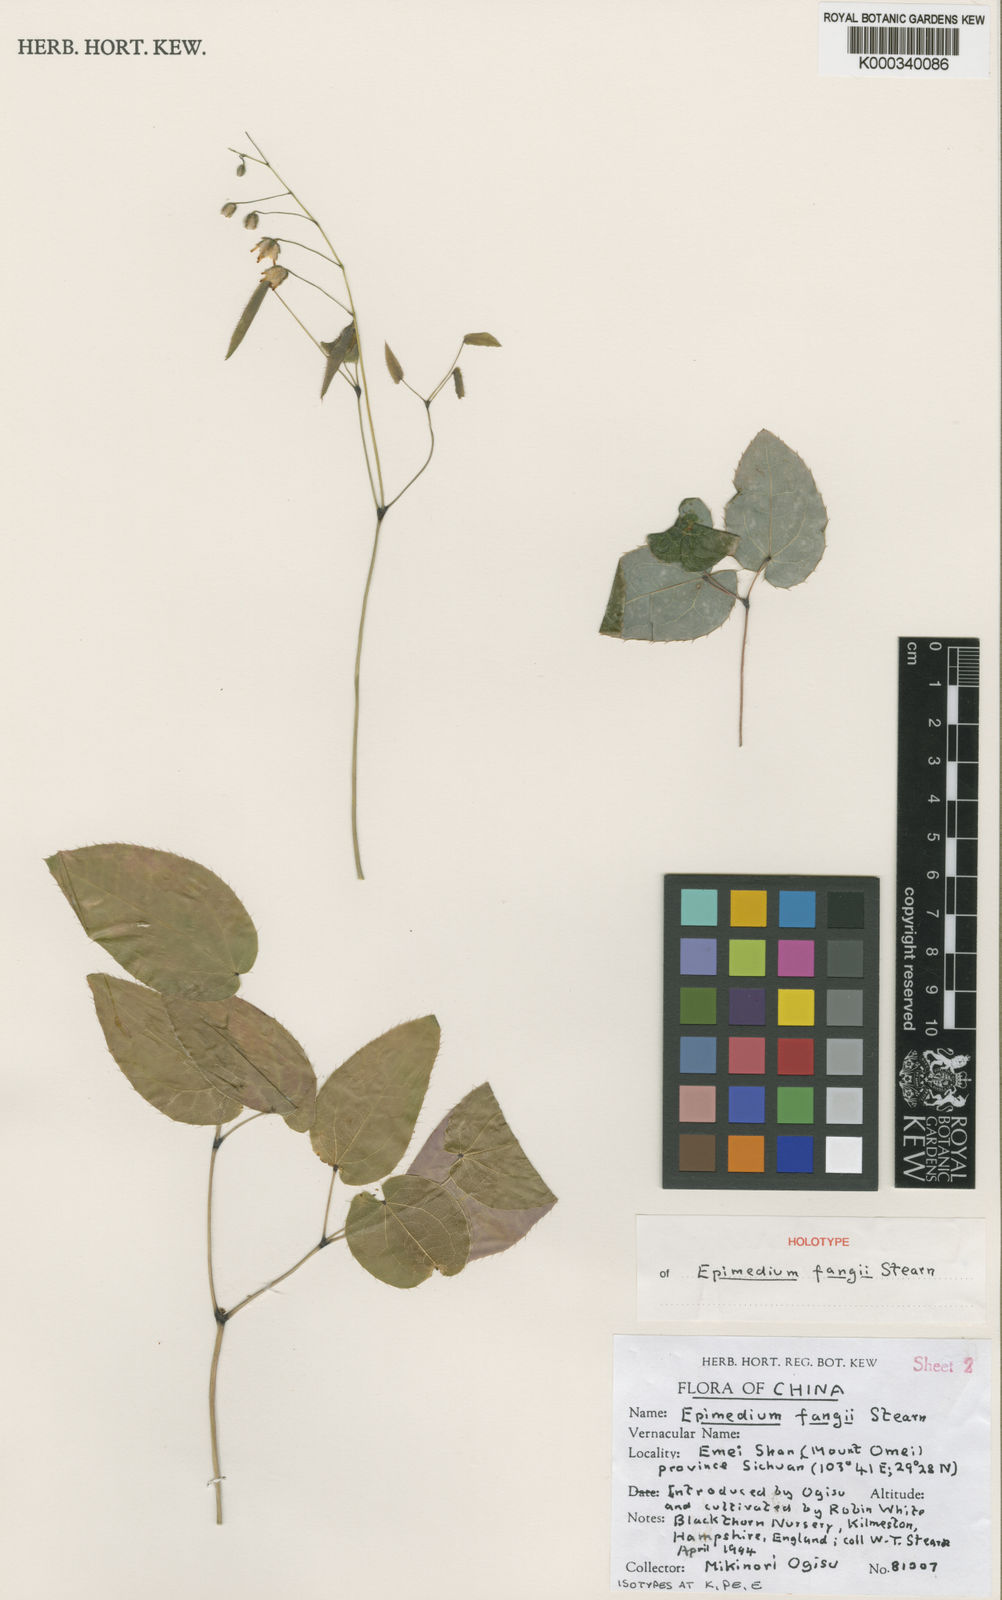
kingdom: Plantae
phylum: Tracheophyta
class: Magnoliopsida
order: Ranunculales
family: Berberidaceae
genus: Epimedium
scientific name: Epimedium fangii
